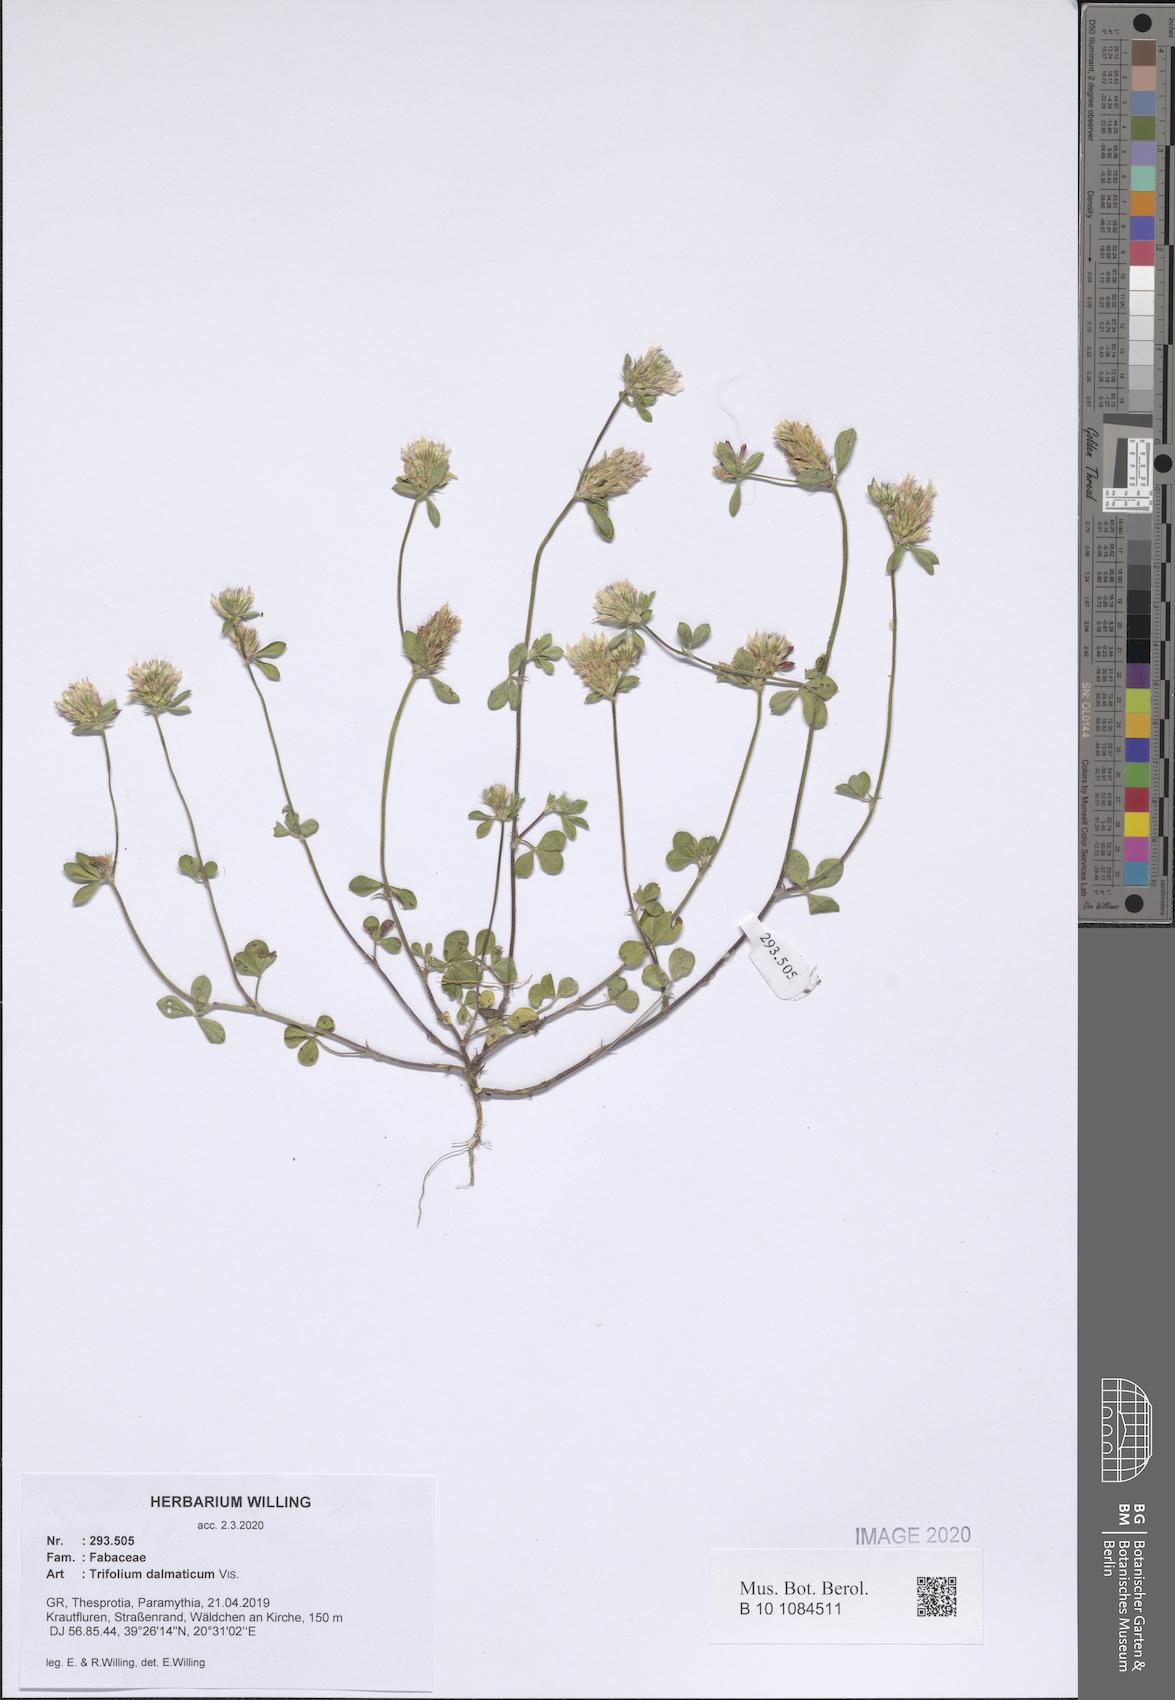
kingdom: Plantae
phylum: Tracheophyta
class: Magnoliopsida
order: Fabales
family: Fabaceae
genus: Trifolium
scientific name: Trifolium dalmaticum
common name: Dalmatian clover
